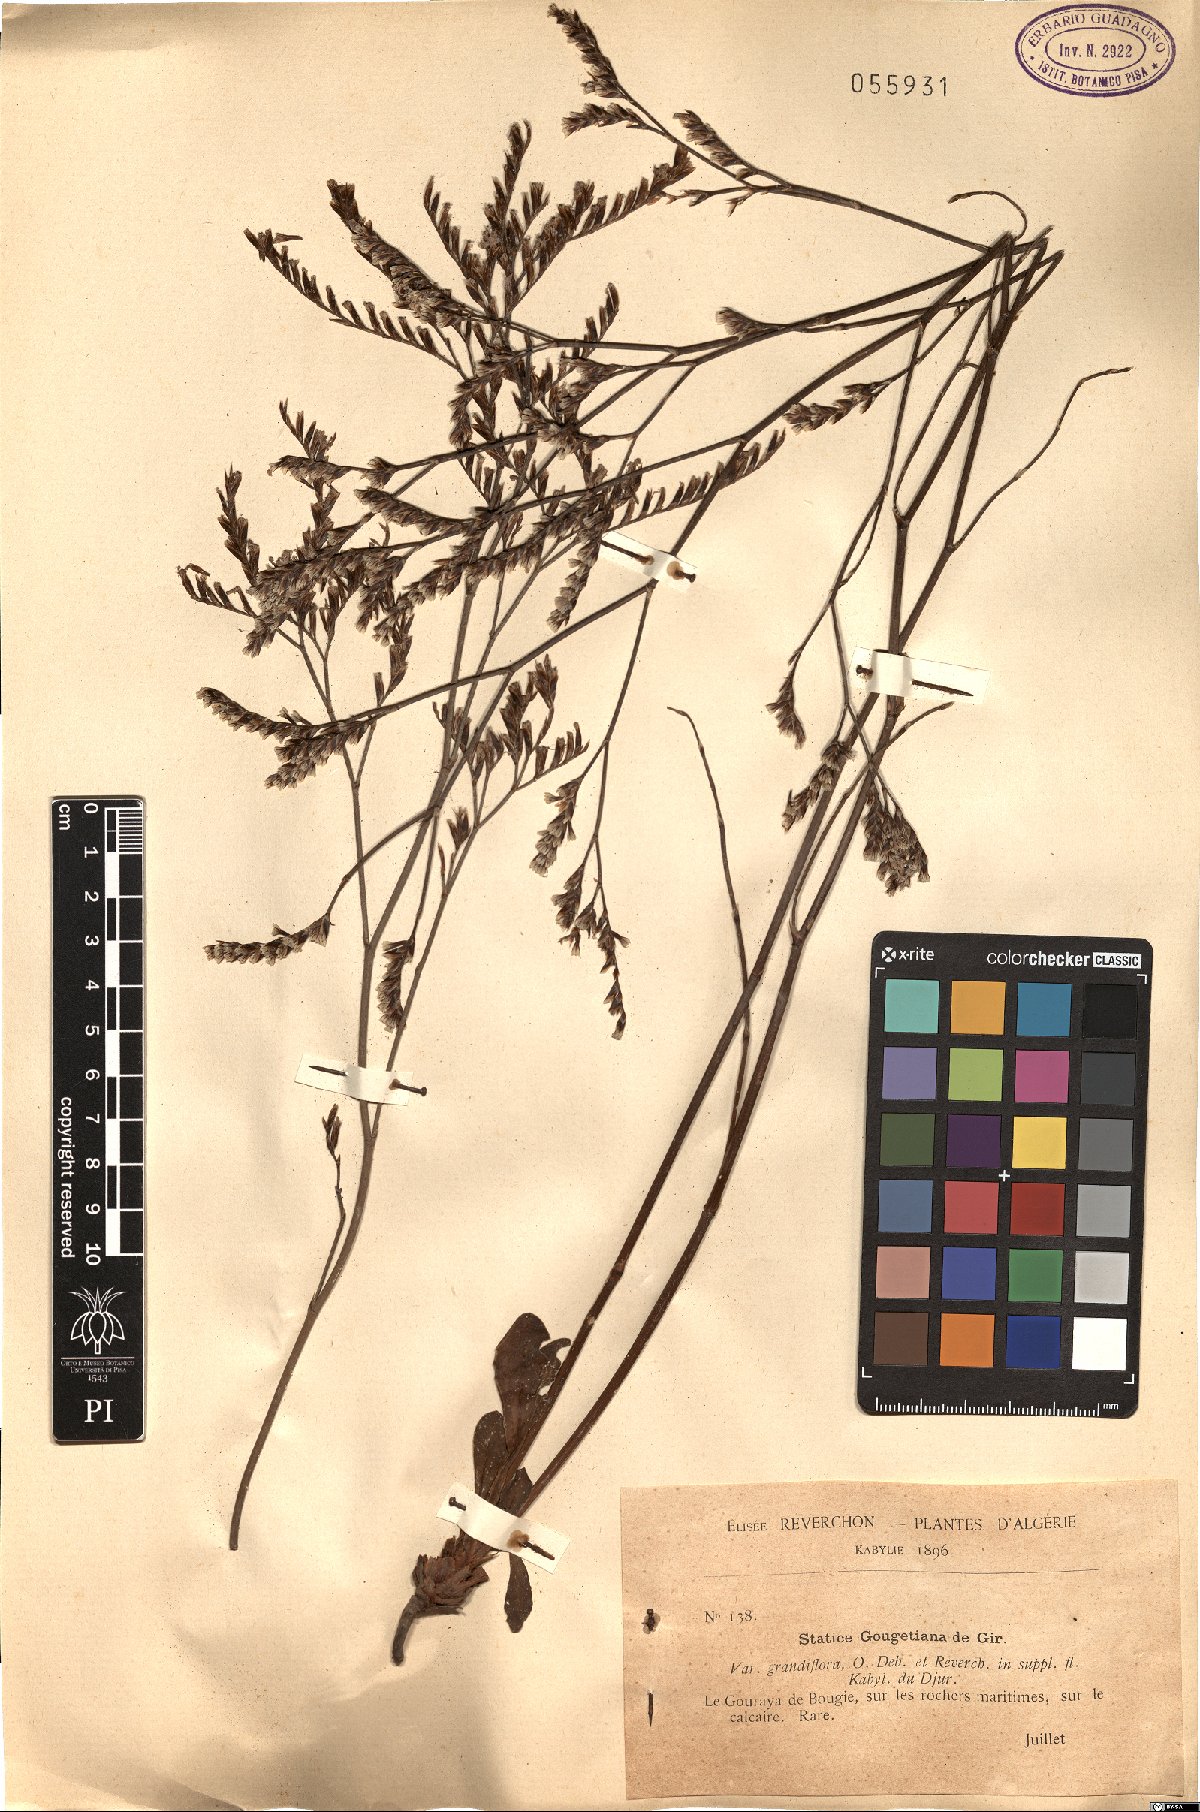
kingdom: Plantae
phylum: Tracheophyta
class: Magnoliopsida
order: Caryophyllales
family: Plumbaginaceae
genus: Limonium
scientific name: Limonium gougetianum
